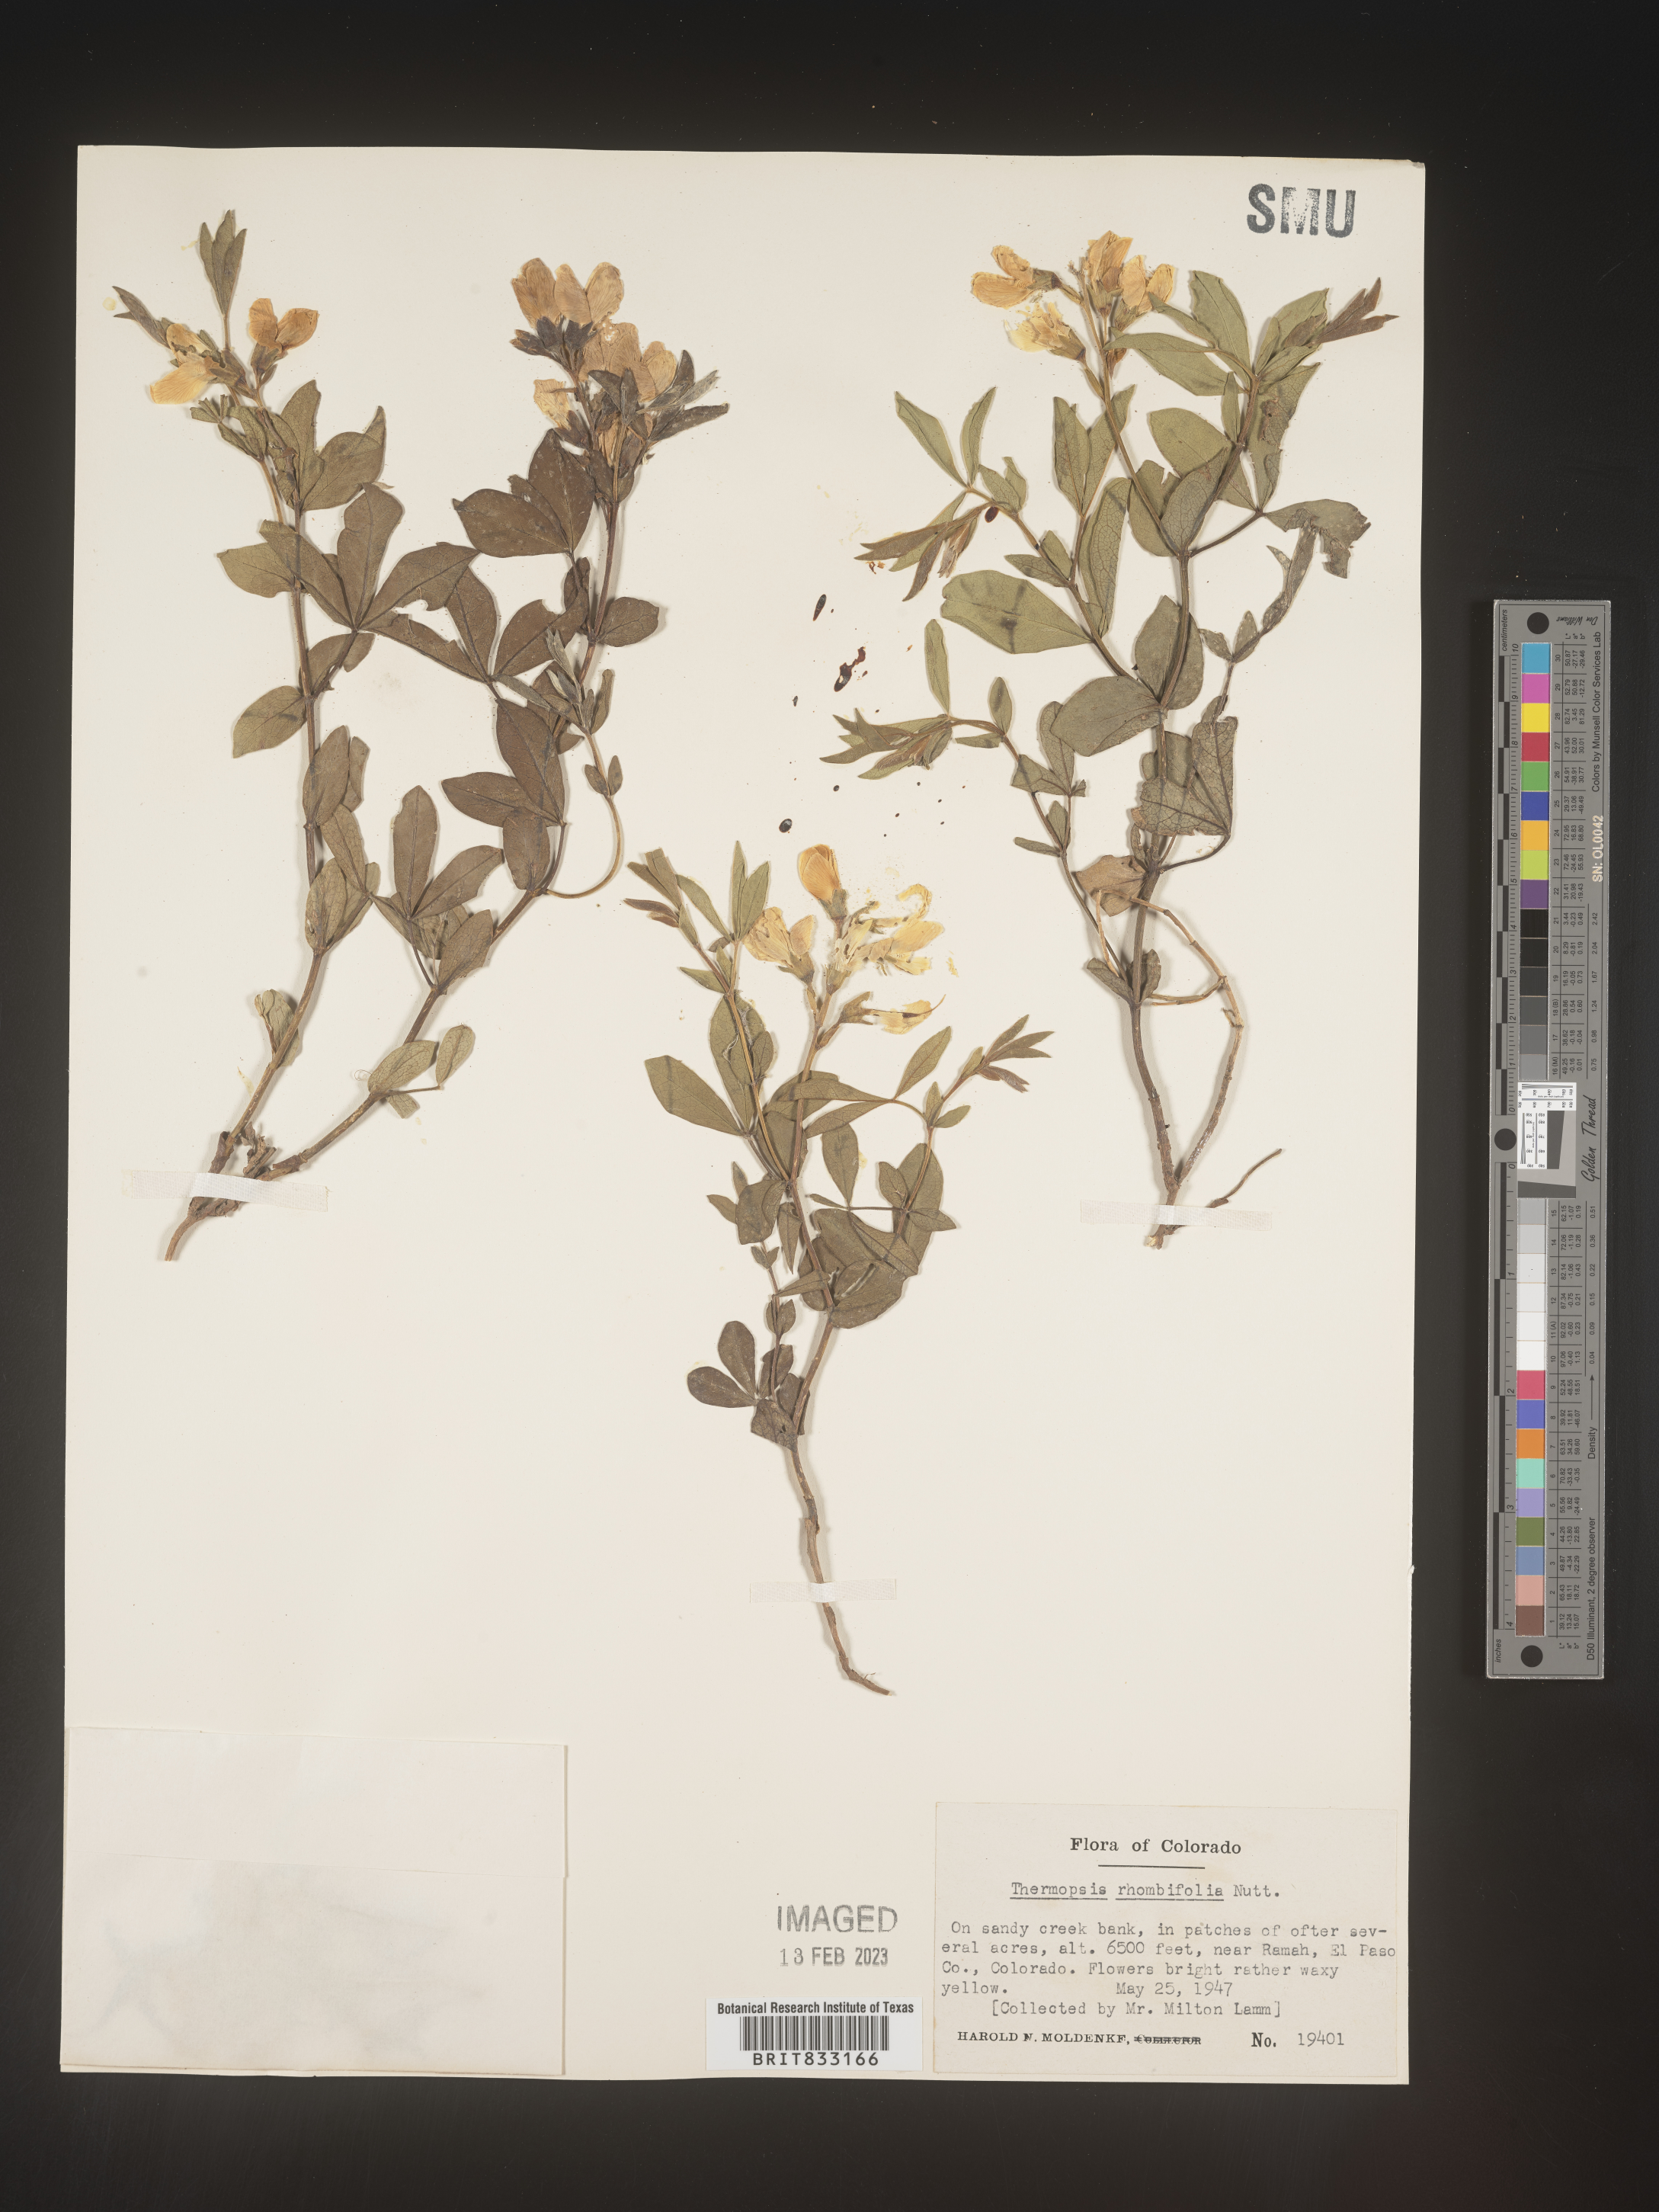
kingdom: Plantae
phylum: Tracheophyta
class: Magnoliopsida
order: Fabales
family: Fabaceae
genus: Thermopsis
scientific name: Thermopsis rhombifolia
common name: Circle-pod-pea
